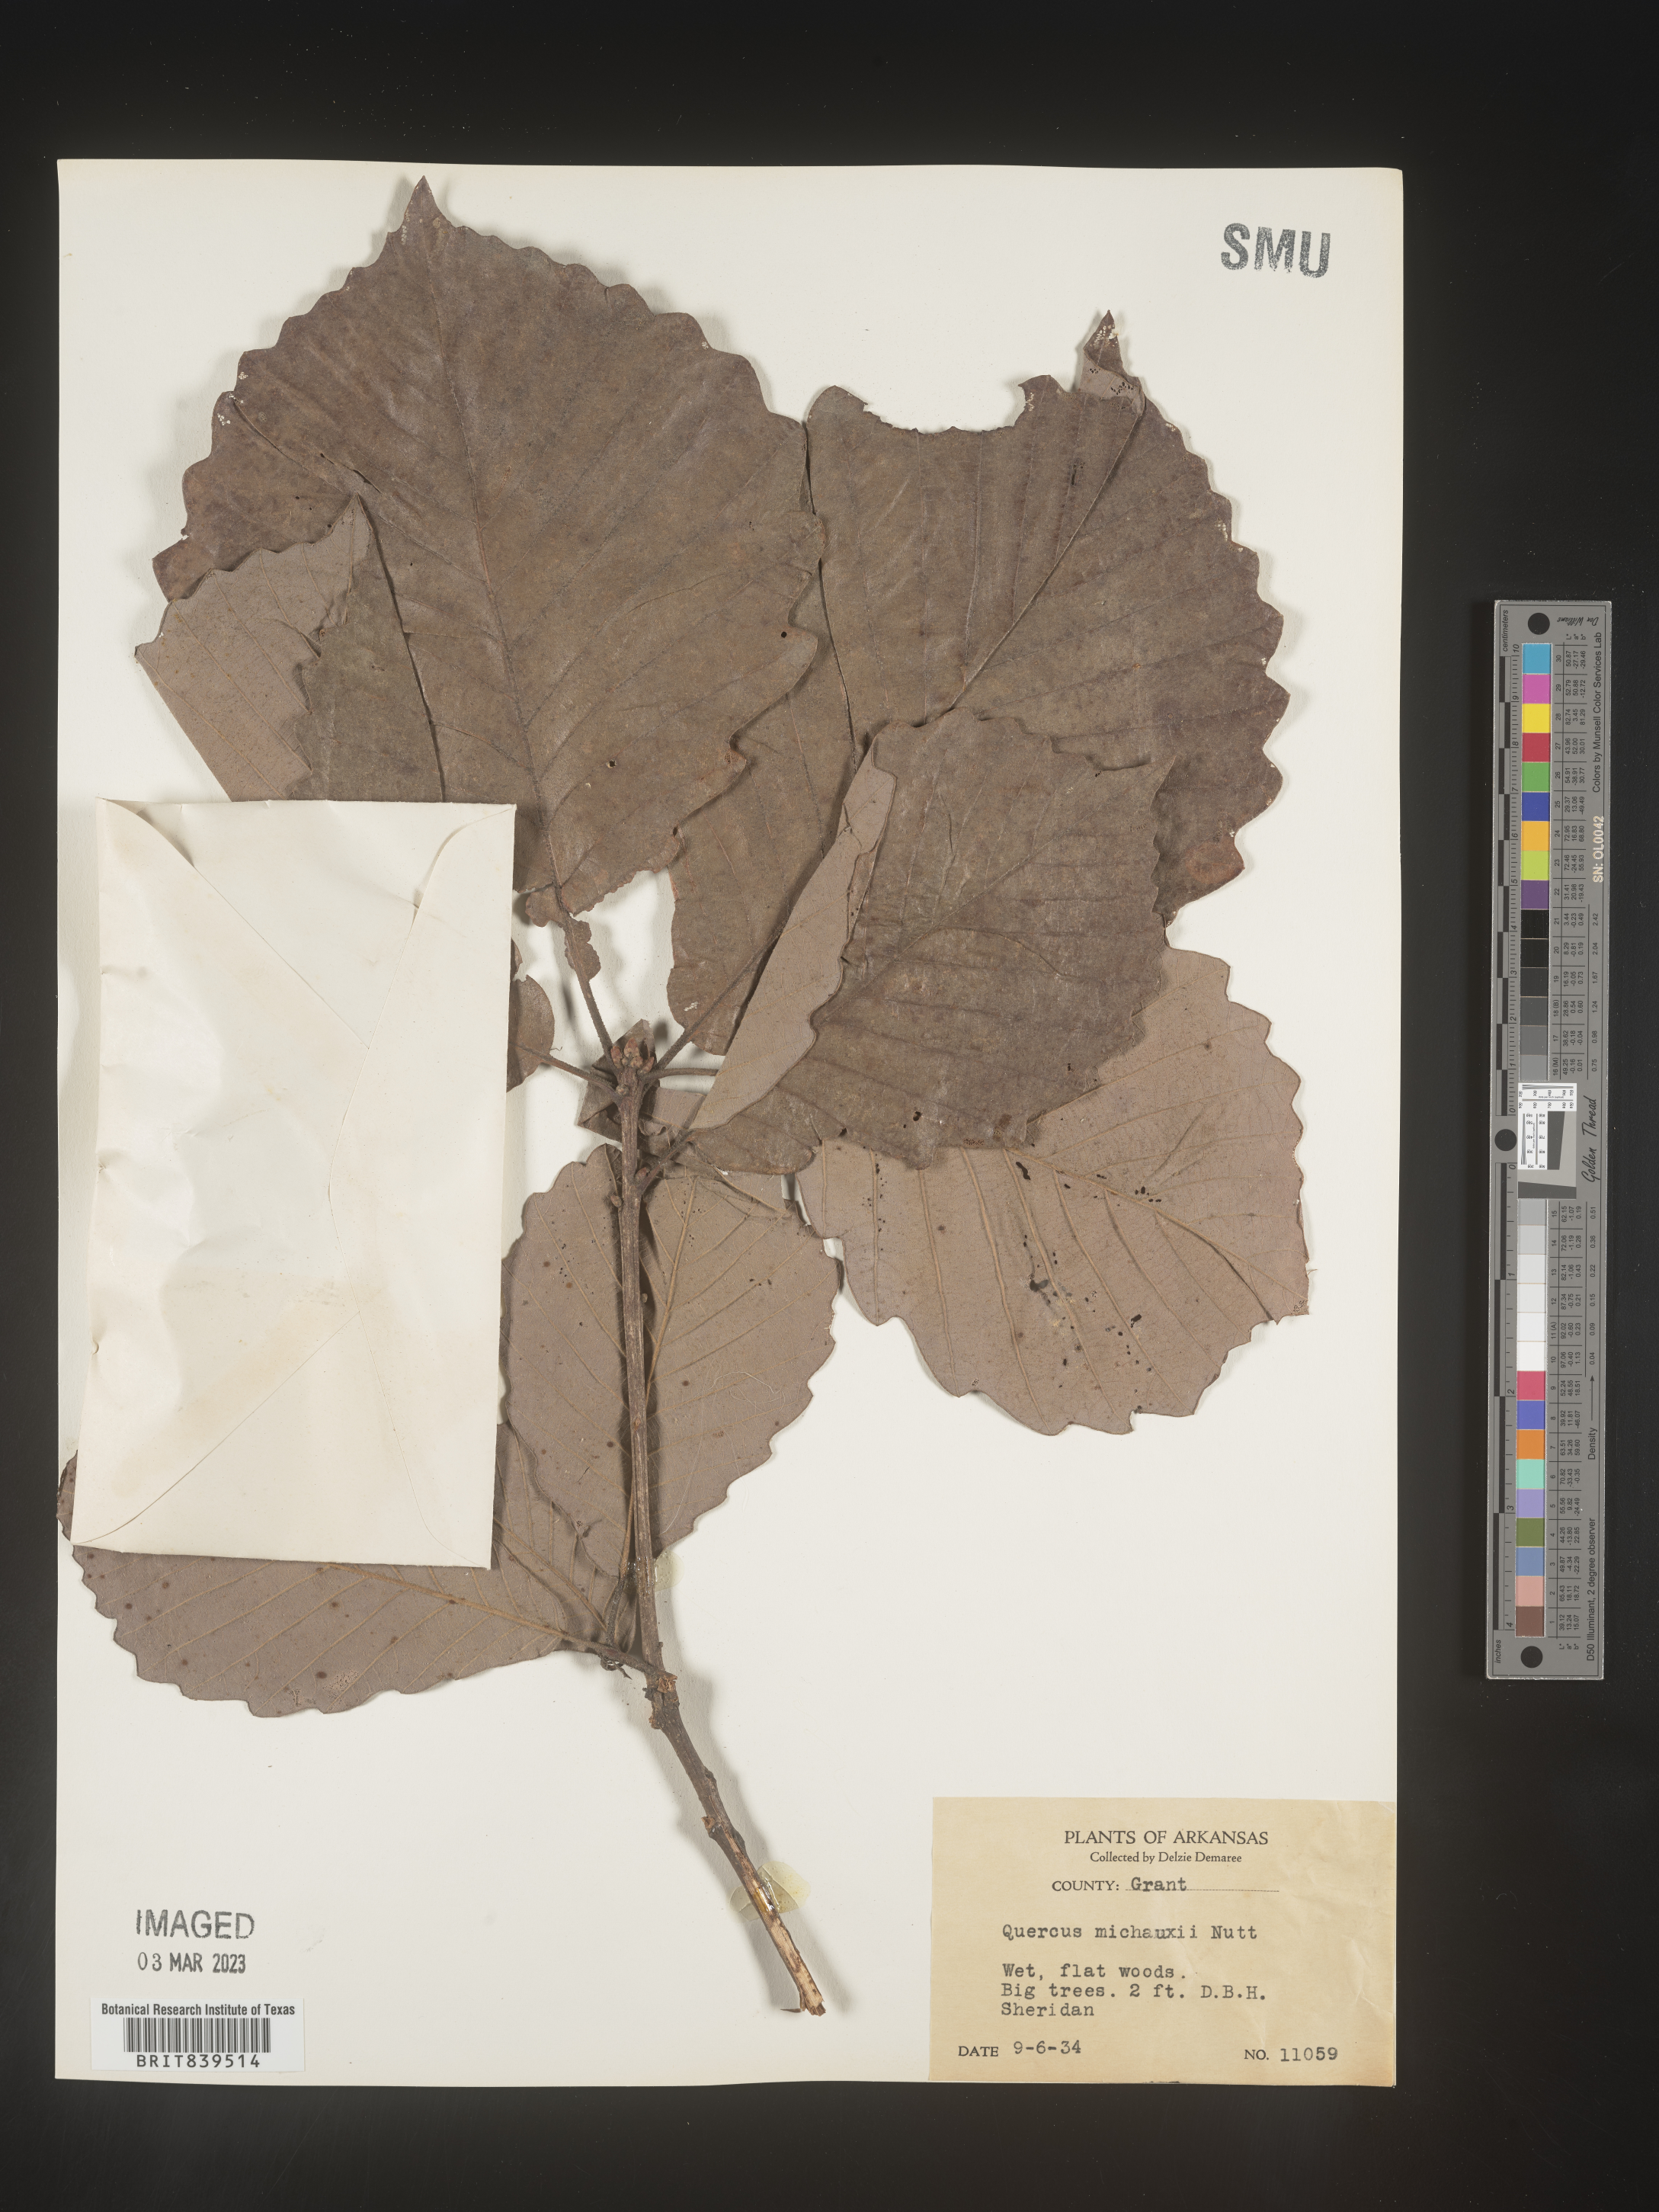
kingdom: Plantae
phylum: Tracheophyta
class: Magnoliopsida
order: Fagales
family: Fagaceae
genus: Quercus
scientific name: Quercus michauxii
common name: Swamp chestnut oak
